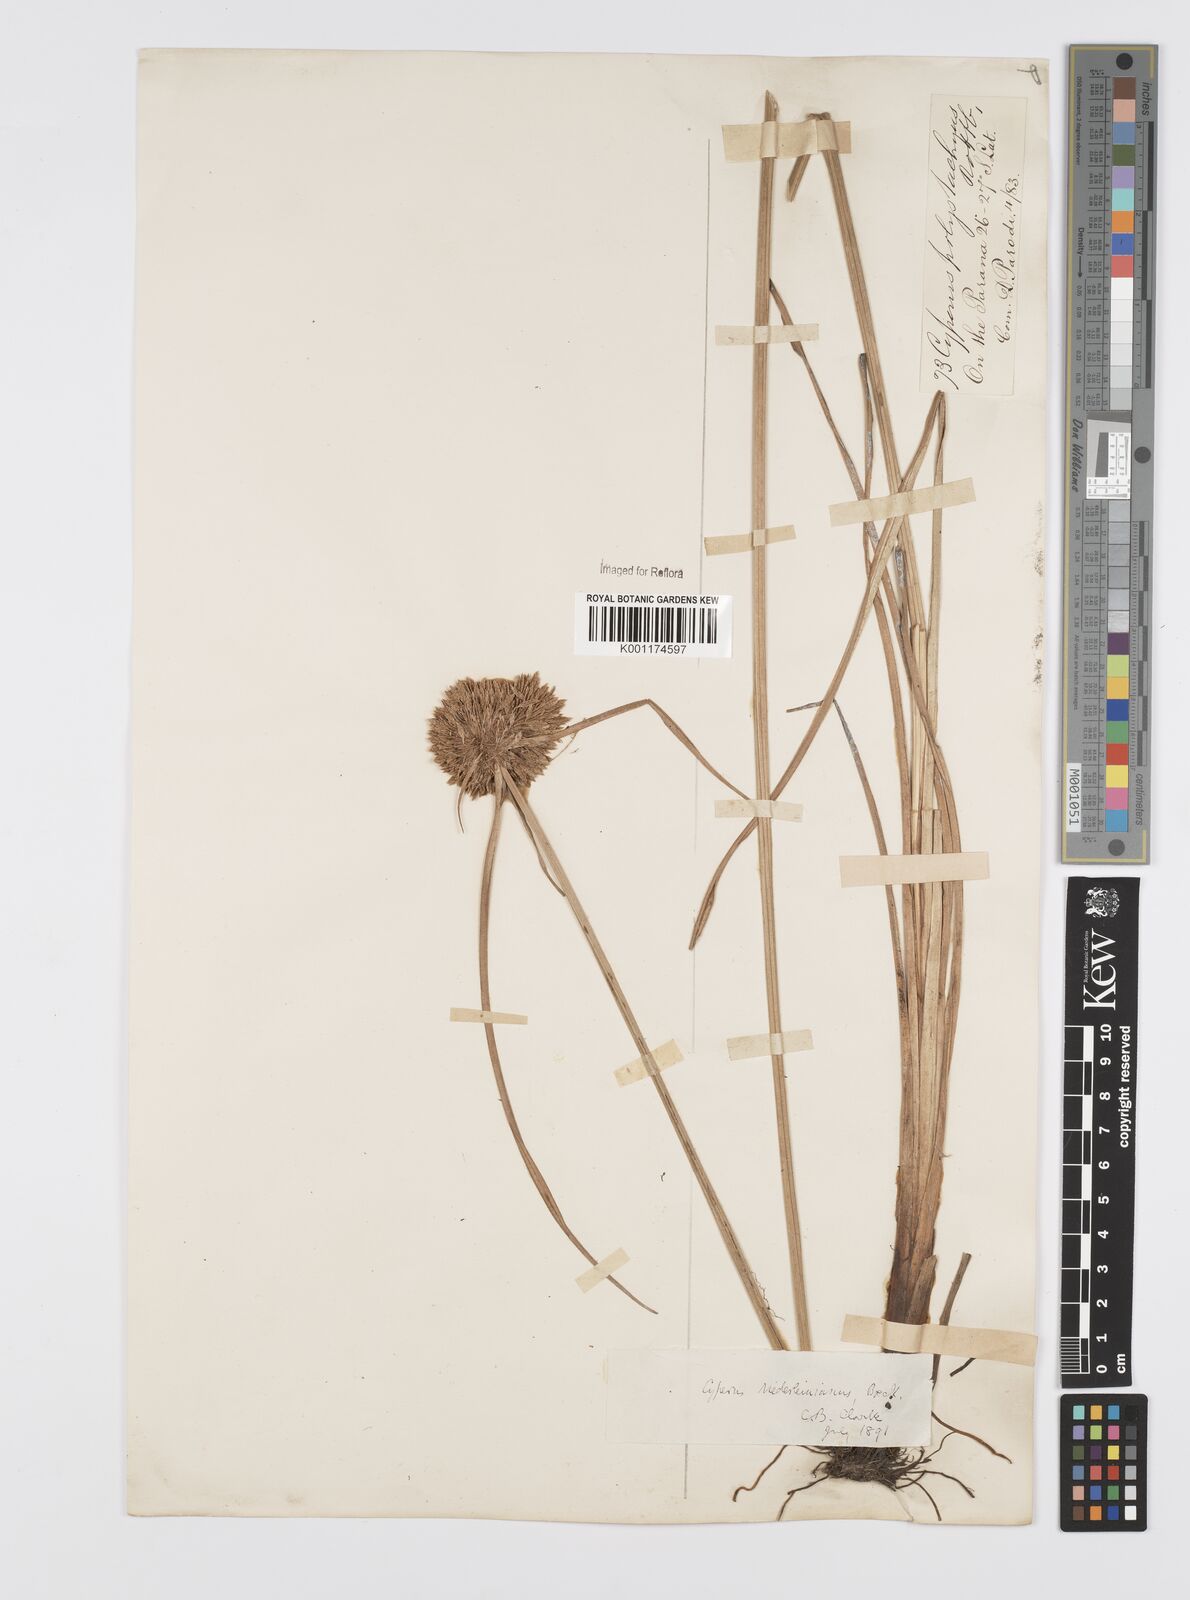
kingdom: Plantae
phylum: Tracheophyta
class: Liliopsida
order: Poales
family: Cyperaceae
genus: Cyperus
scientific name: Cyperus niederleinianus
